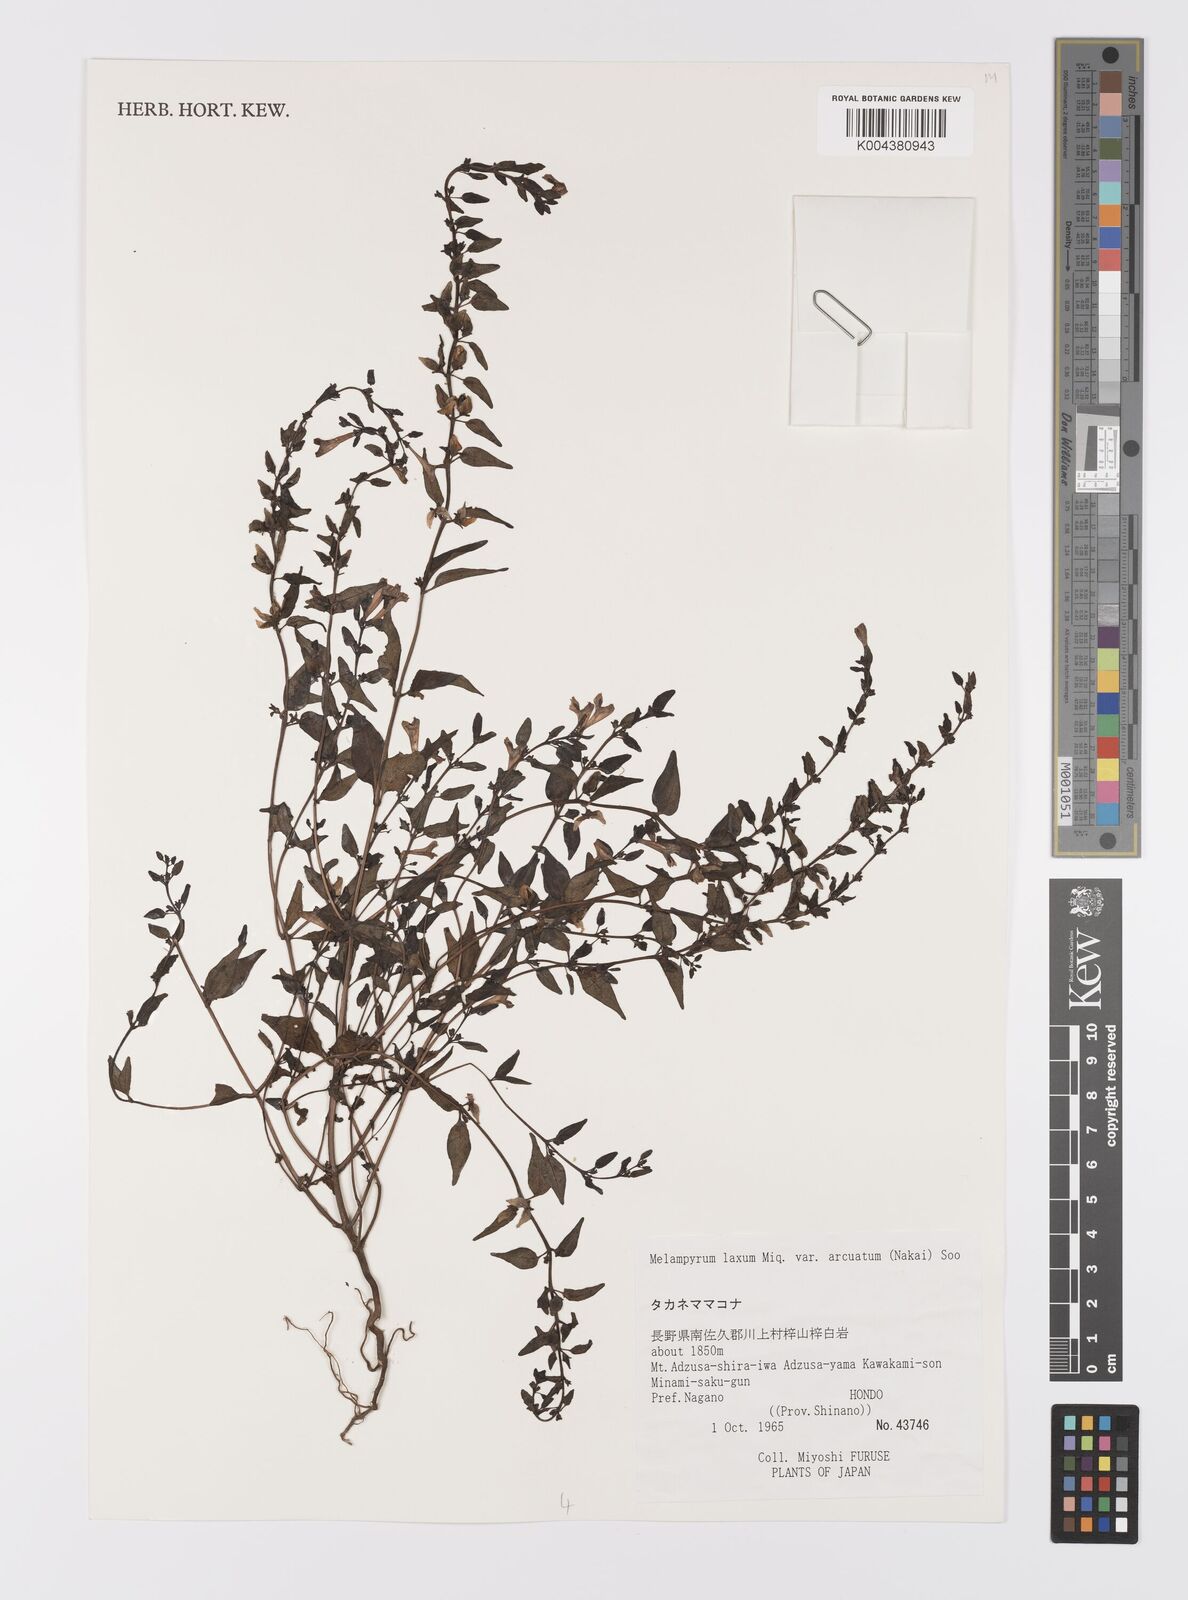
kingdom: Plantae
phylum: Tracheophyta
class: Magnoliopsida
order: Lamiales
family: Orobanchaceae
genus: Melampyrum
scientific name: Melampyrum laxum
